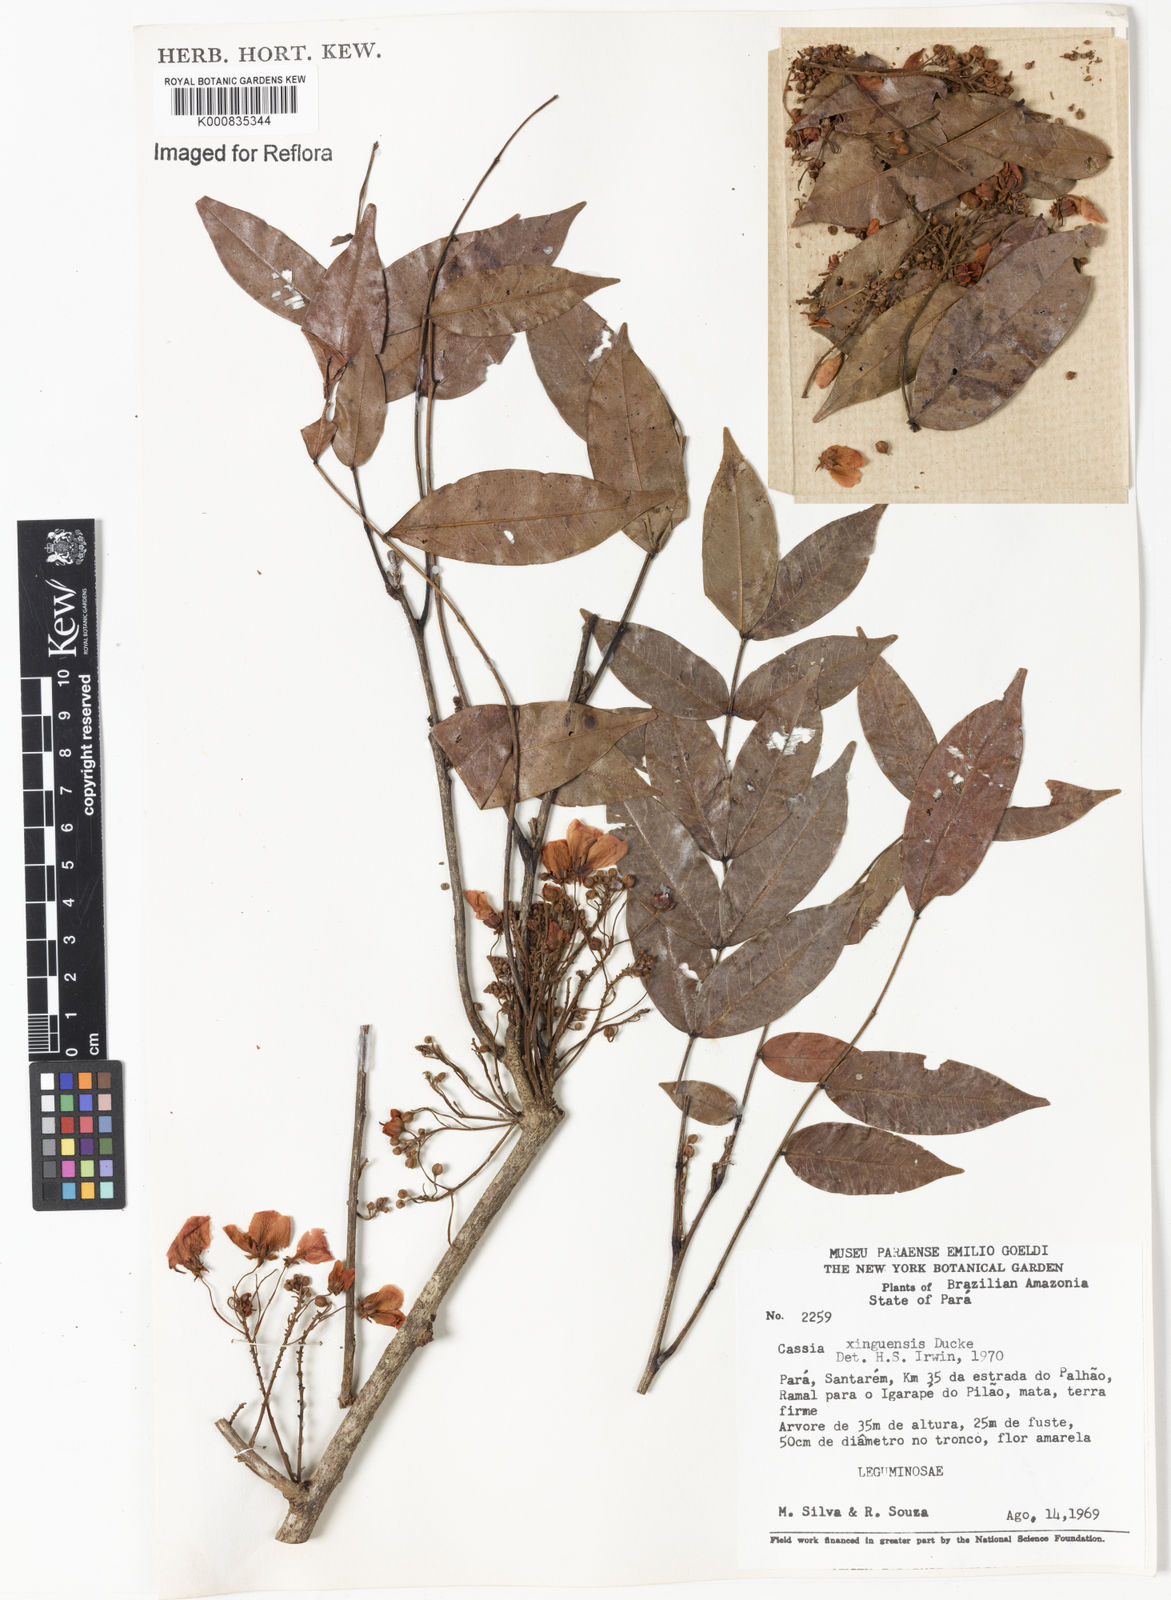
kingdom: Plantae
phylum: Tracheophyta
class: Magnoliopsida
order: Fabales
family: Fabaceae
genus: Chamaecrista
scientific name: Chamaecrista xinguensis
